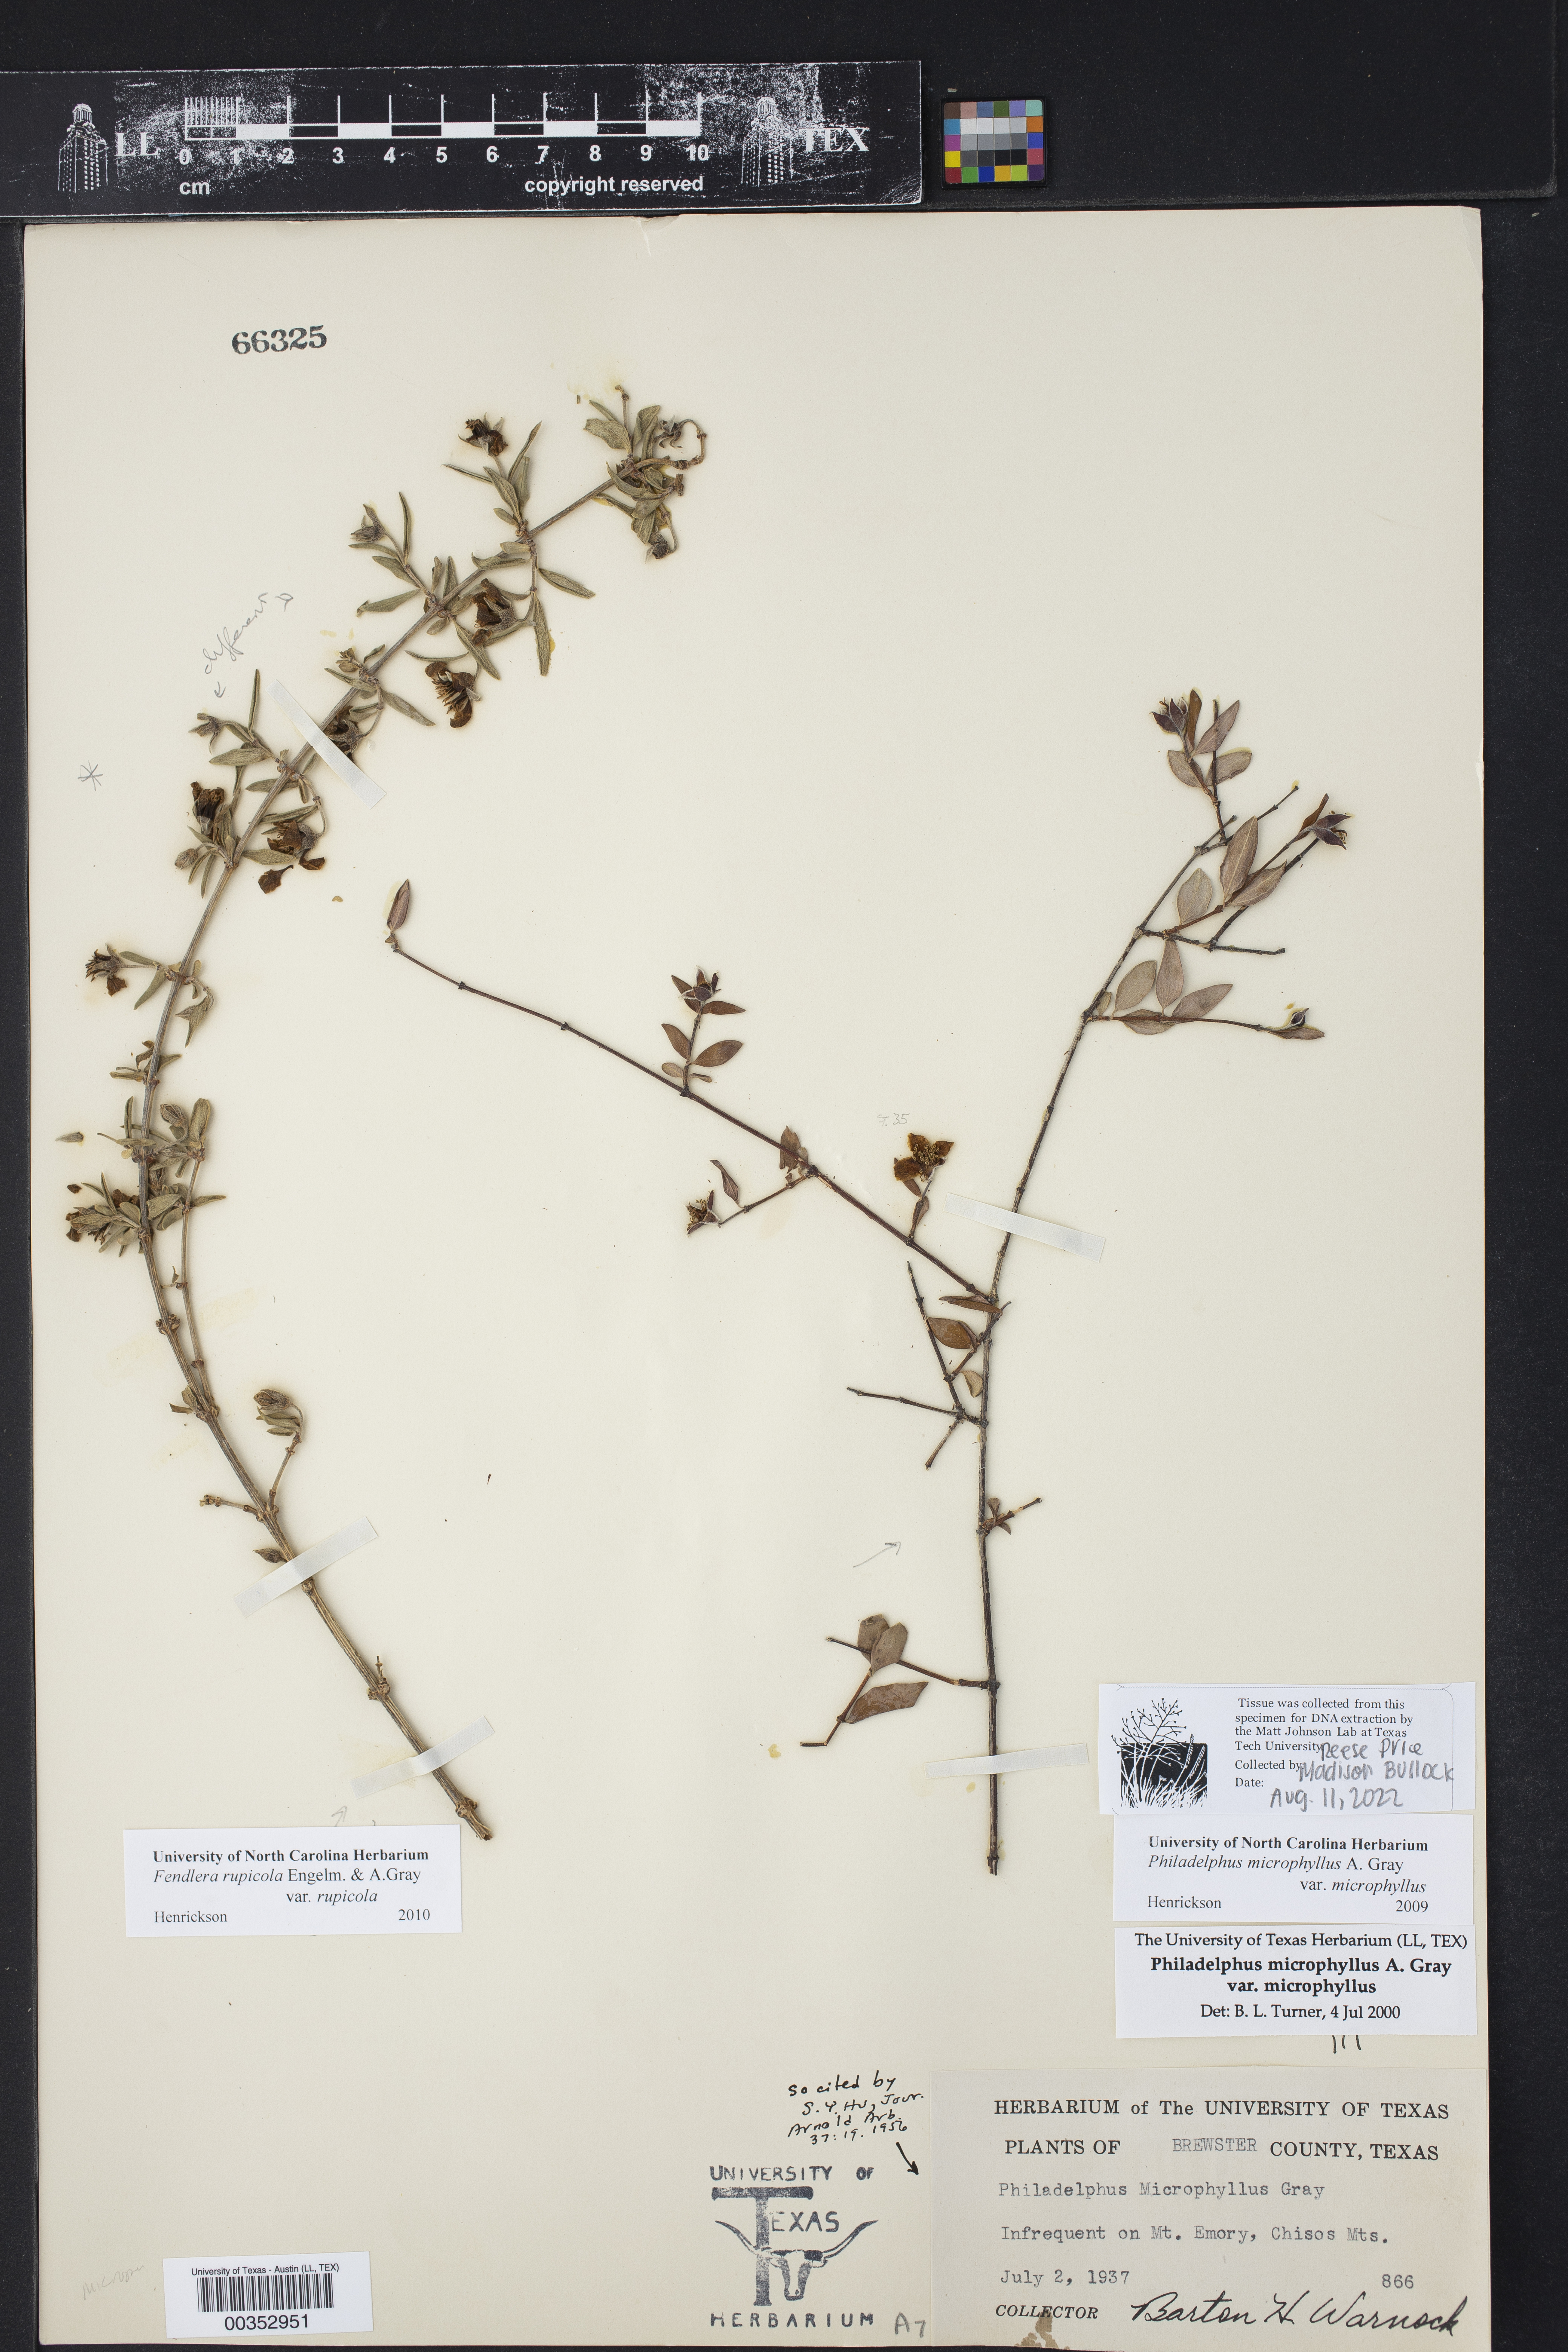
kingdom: Plantae
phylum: Tracheophyta
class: Magnoliopsida
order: Cornales
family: Hydrangeaceae
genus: Philadelphus
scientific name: Philadelphus microphyllus
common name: Desert mock orange
